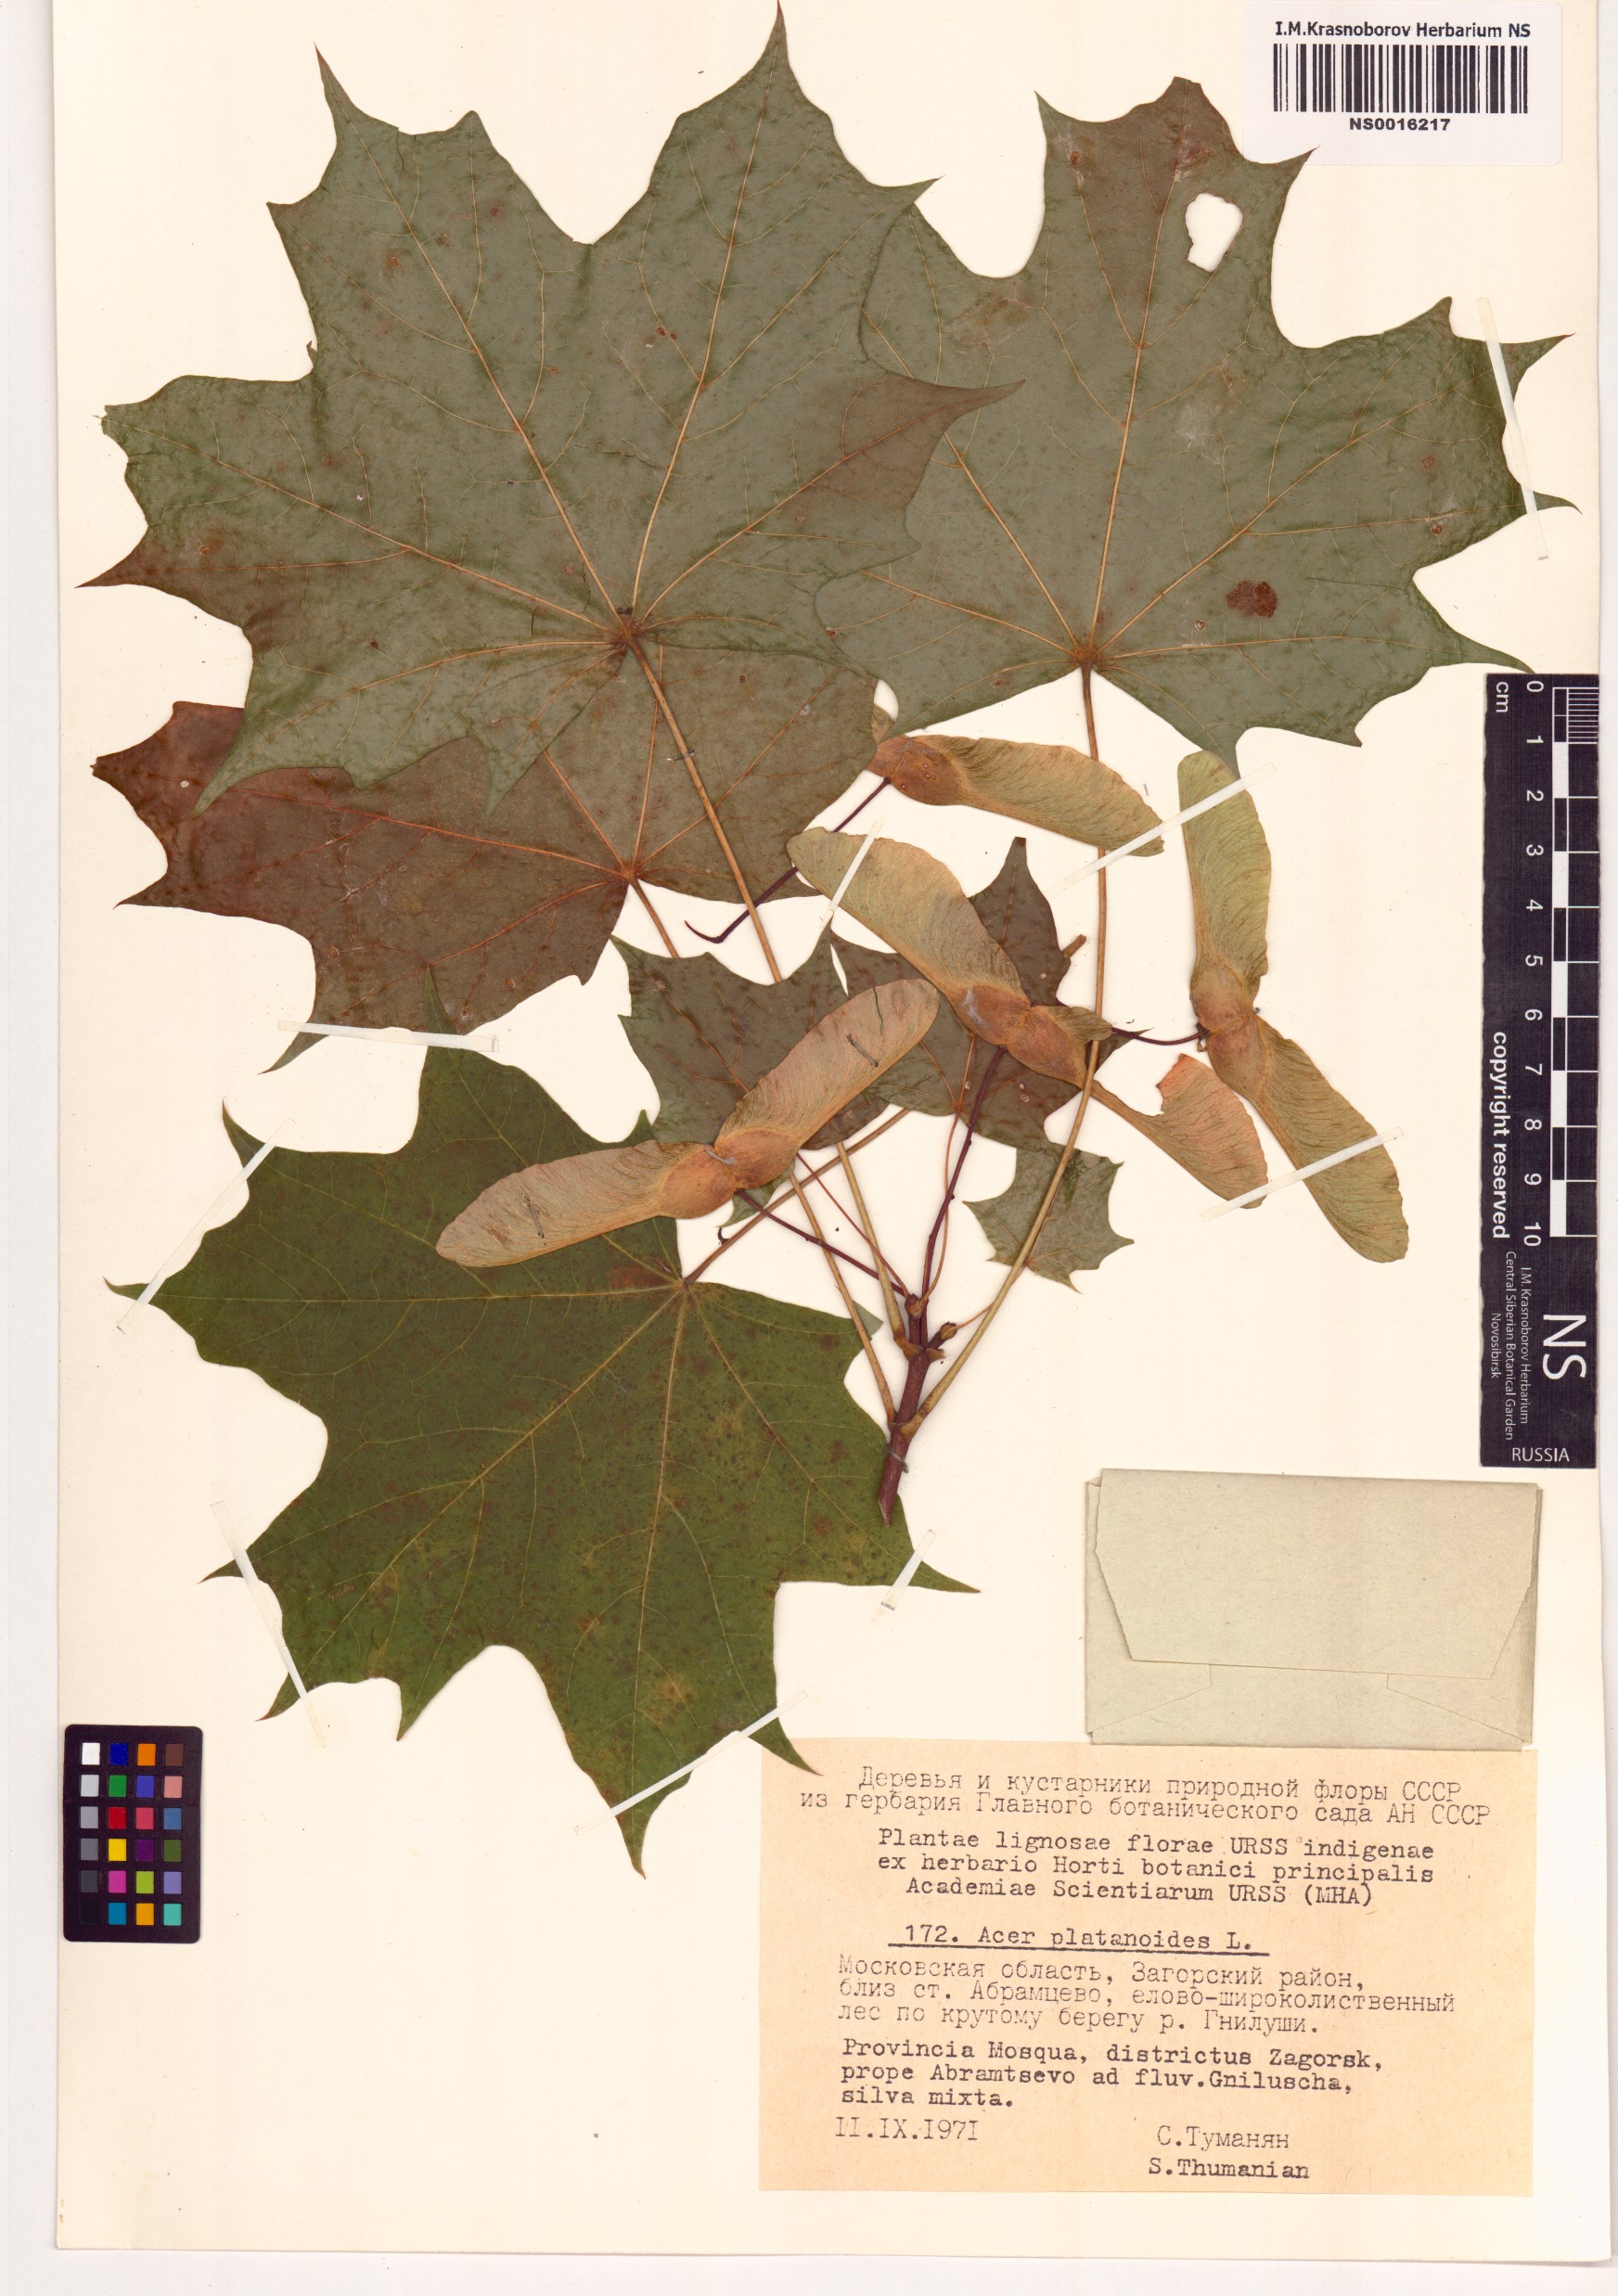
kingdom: Plantae
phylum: Tracheophyta
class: Magnoliopsida
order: Sapindales
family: Sapindaceae
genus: Acer
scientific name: Acer platanoides
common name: Norway maple
